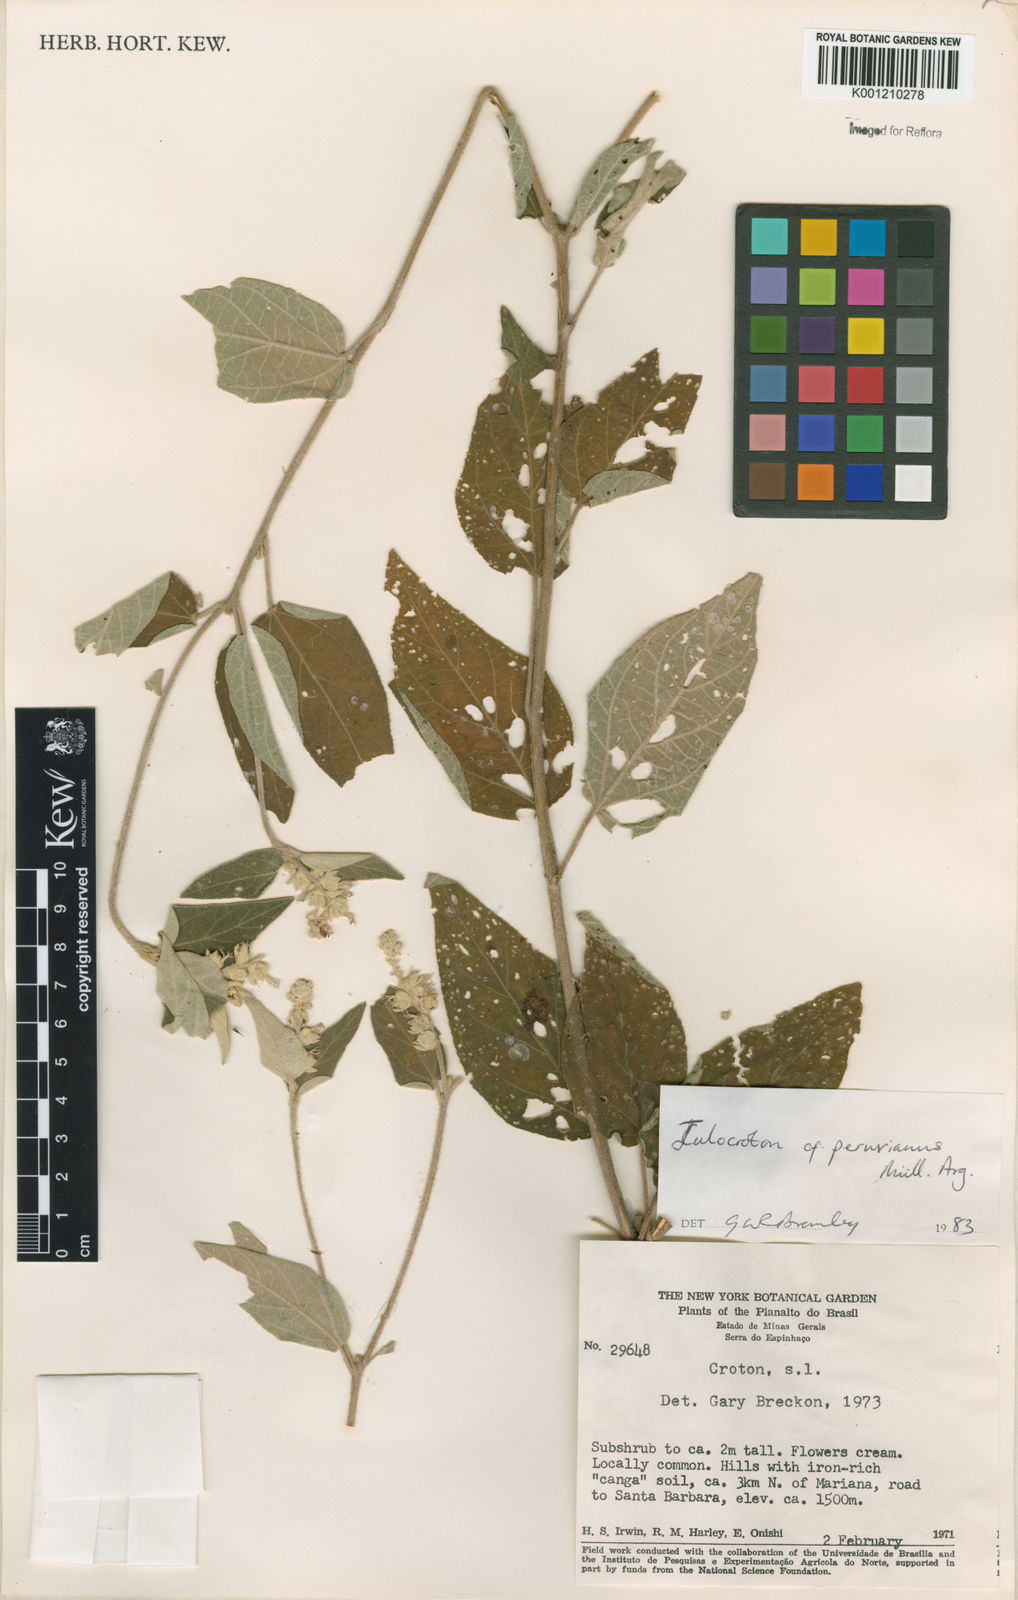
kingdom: Plantae
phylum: Tracheophyta
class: Magnoliopsida
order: Malpighiales
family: Euphorbiaceae
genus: Croton
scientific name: Croton
